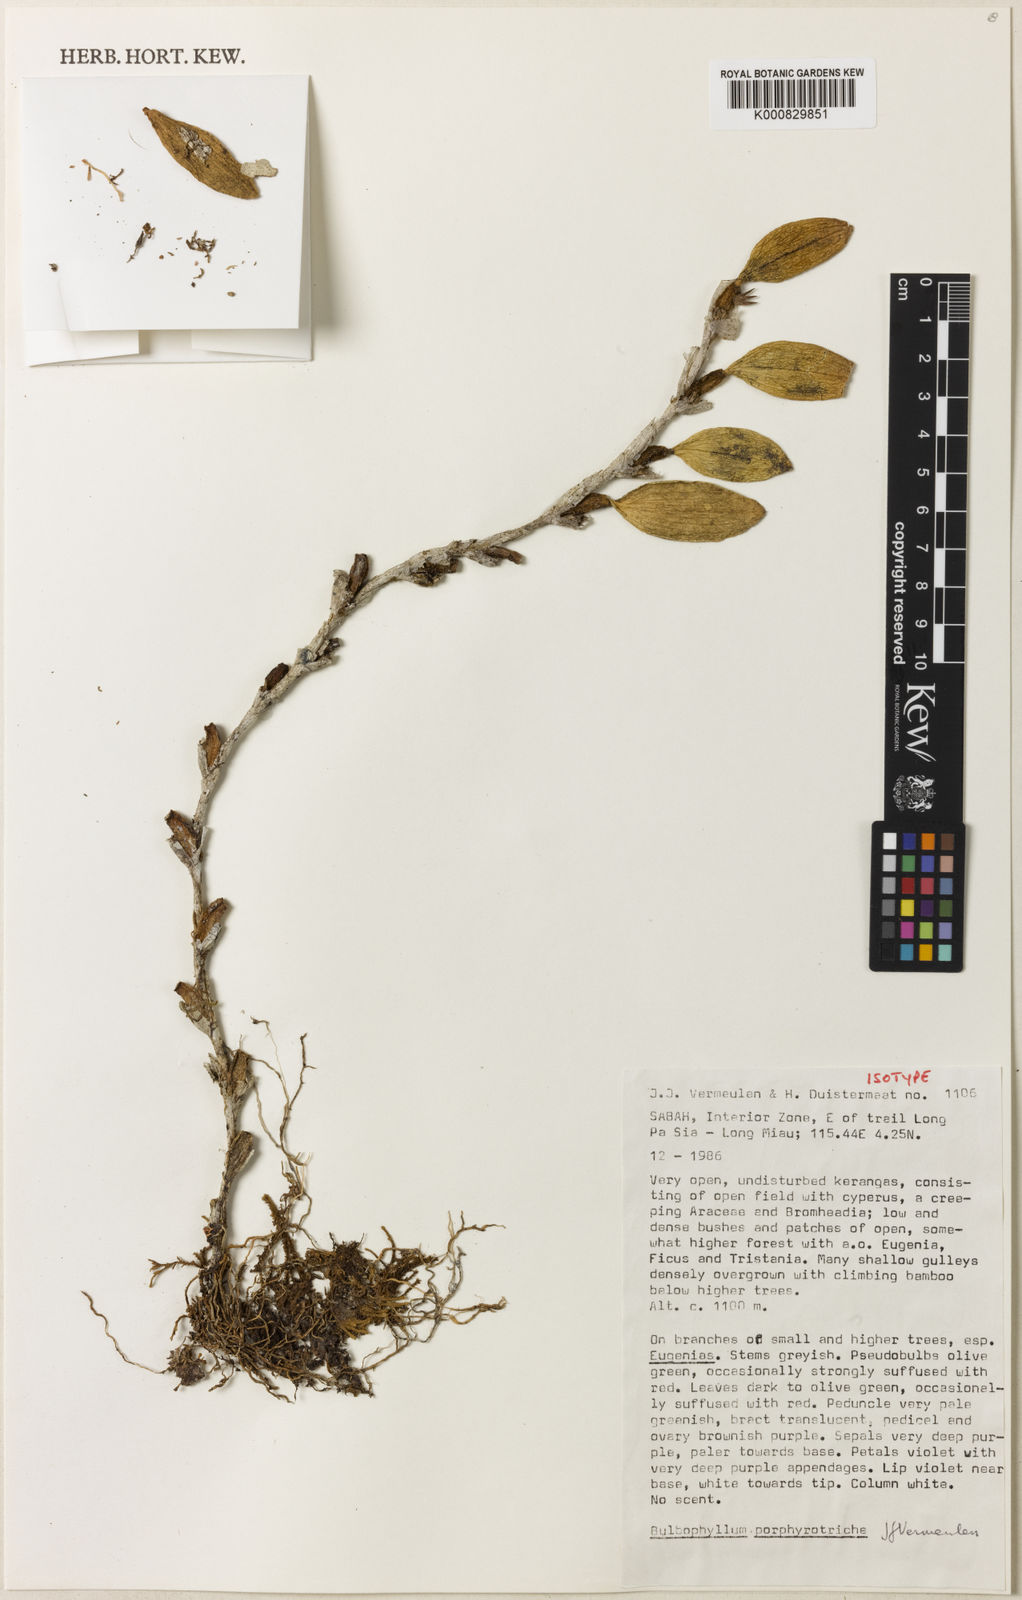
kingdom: Plantae
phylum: Tracheophyta
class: Liliopsida
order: Asparagales
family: Orchidaceae
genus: Bulbophyllum
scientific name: Bulbophyllum porphyrotriche
